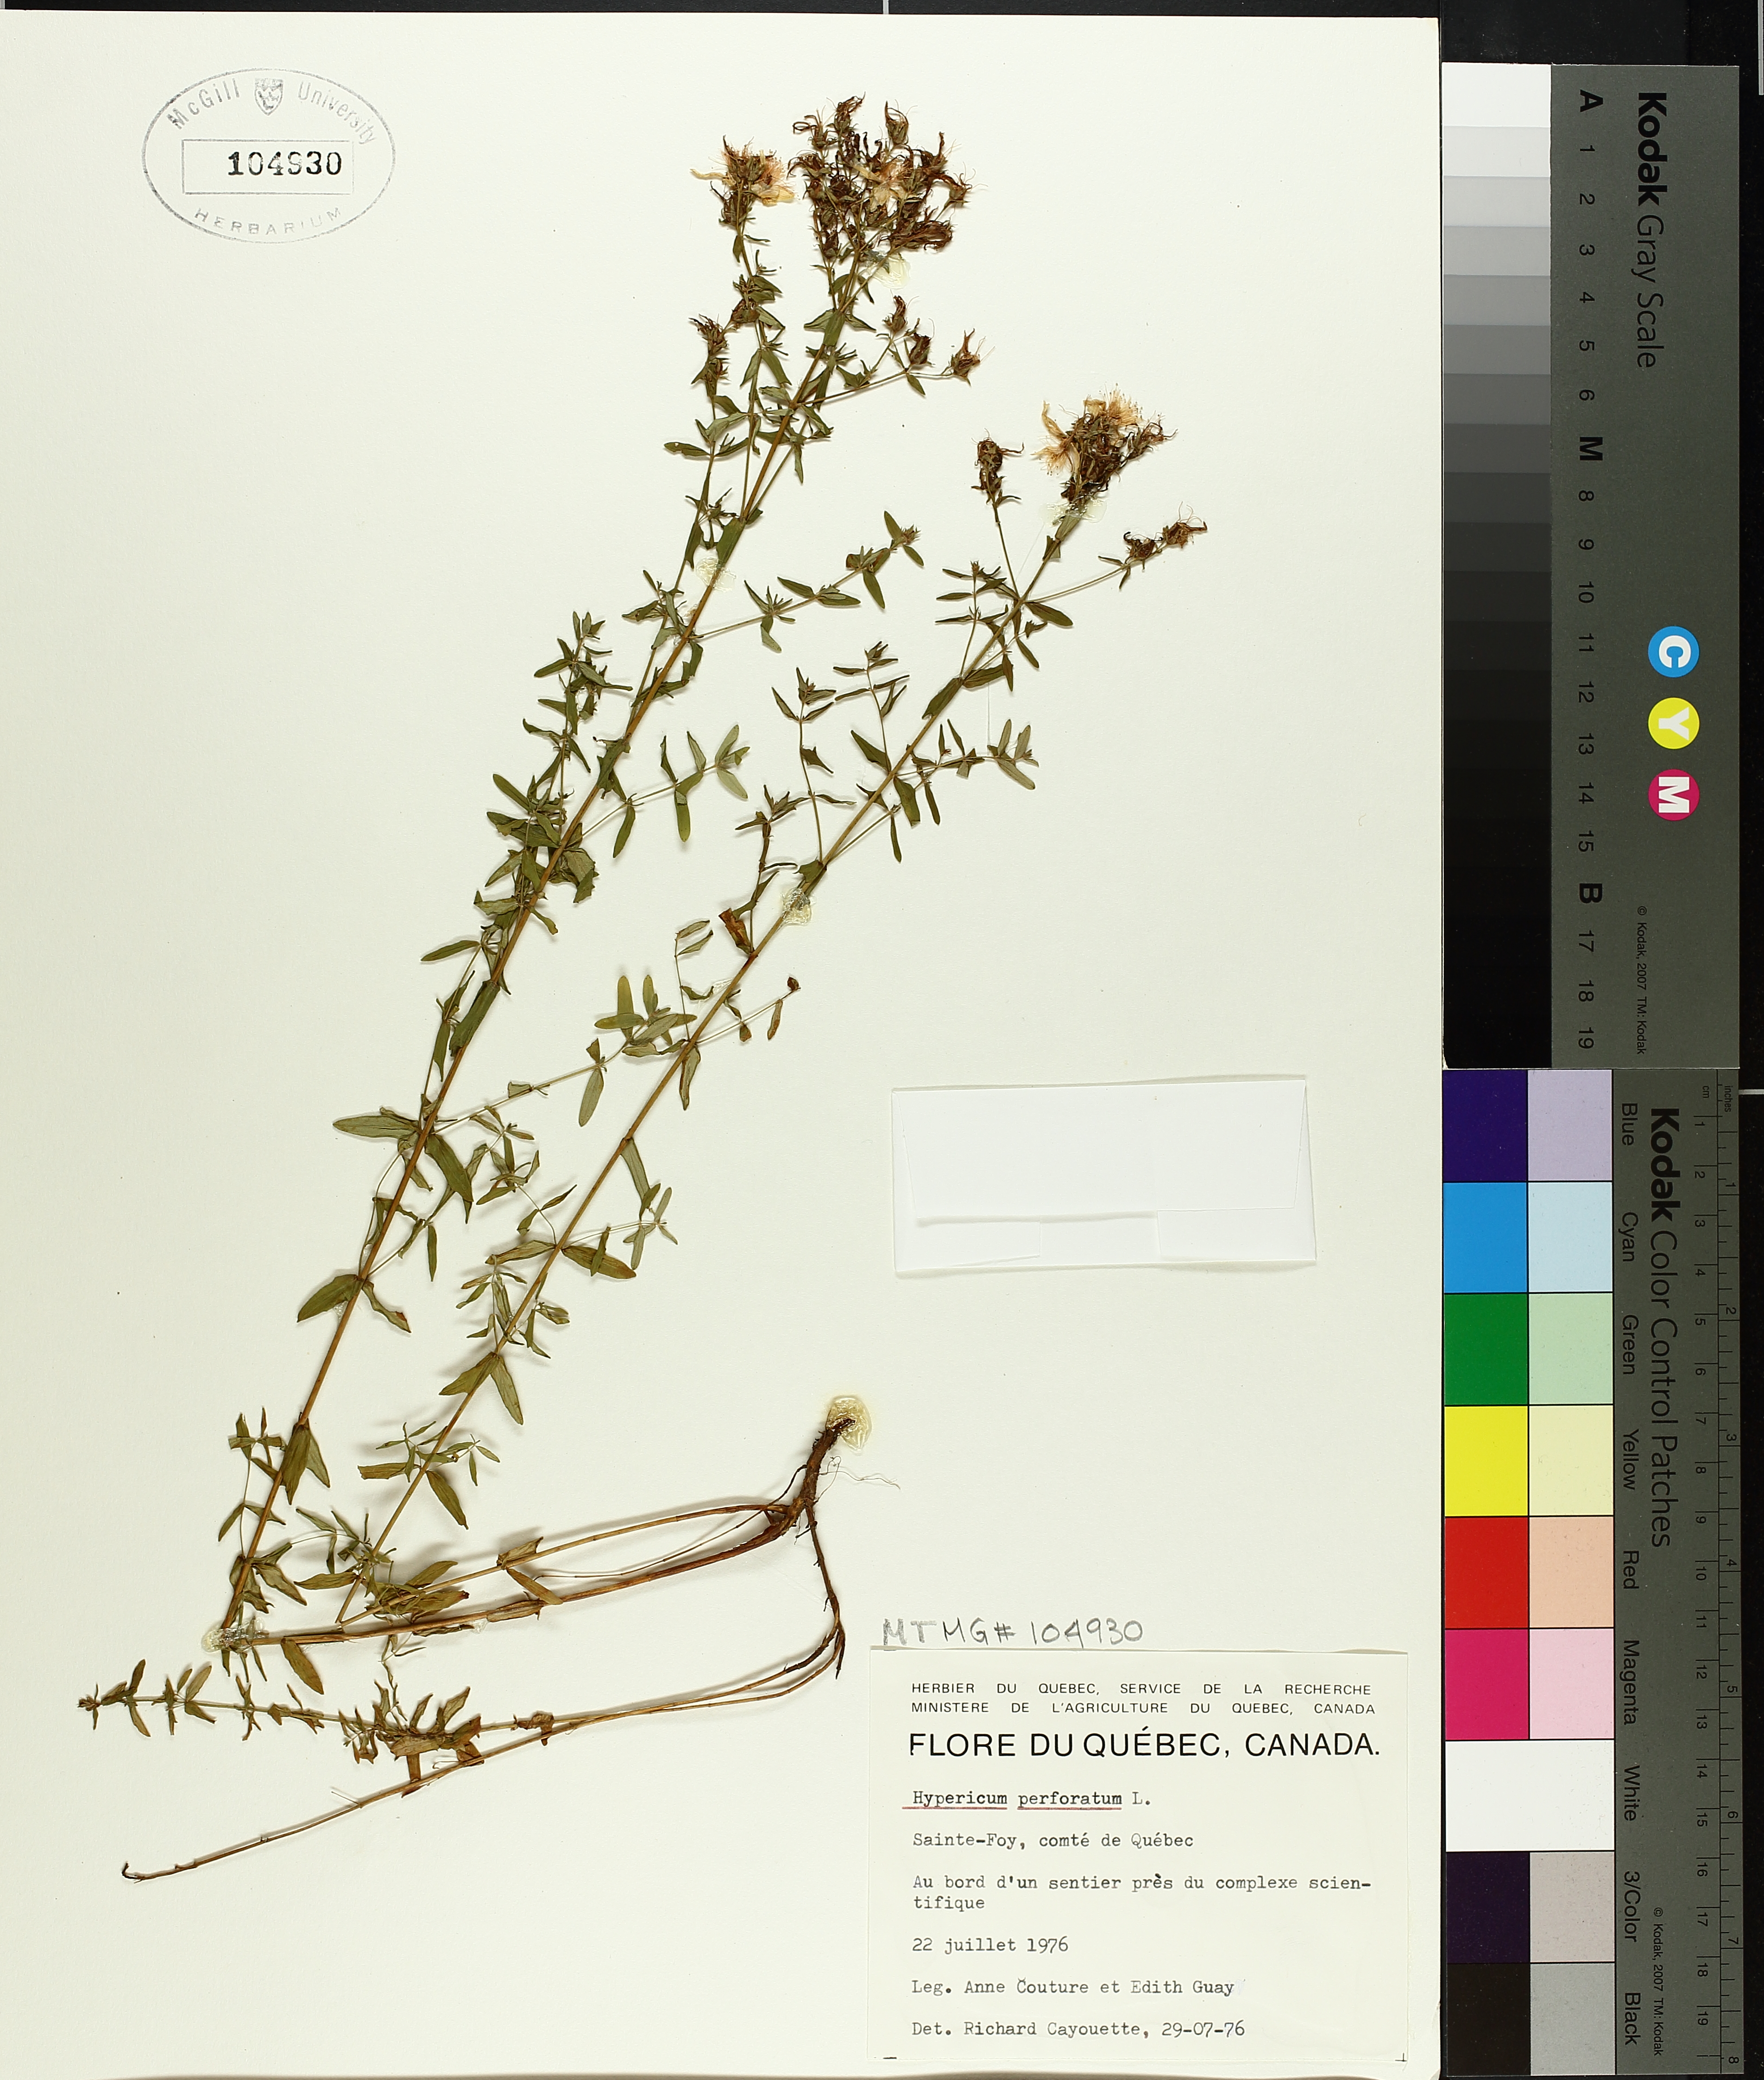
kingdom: Plantae
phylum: Tracheophyta
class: Magnoliopsida
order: Malpighiales
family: Hypericaceae
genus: Hypericum
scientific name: Hypericum perforatum
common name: Common st. johnswort
